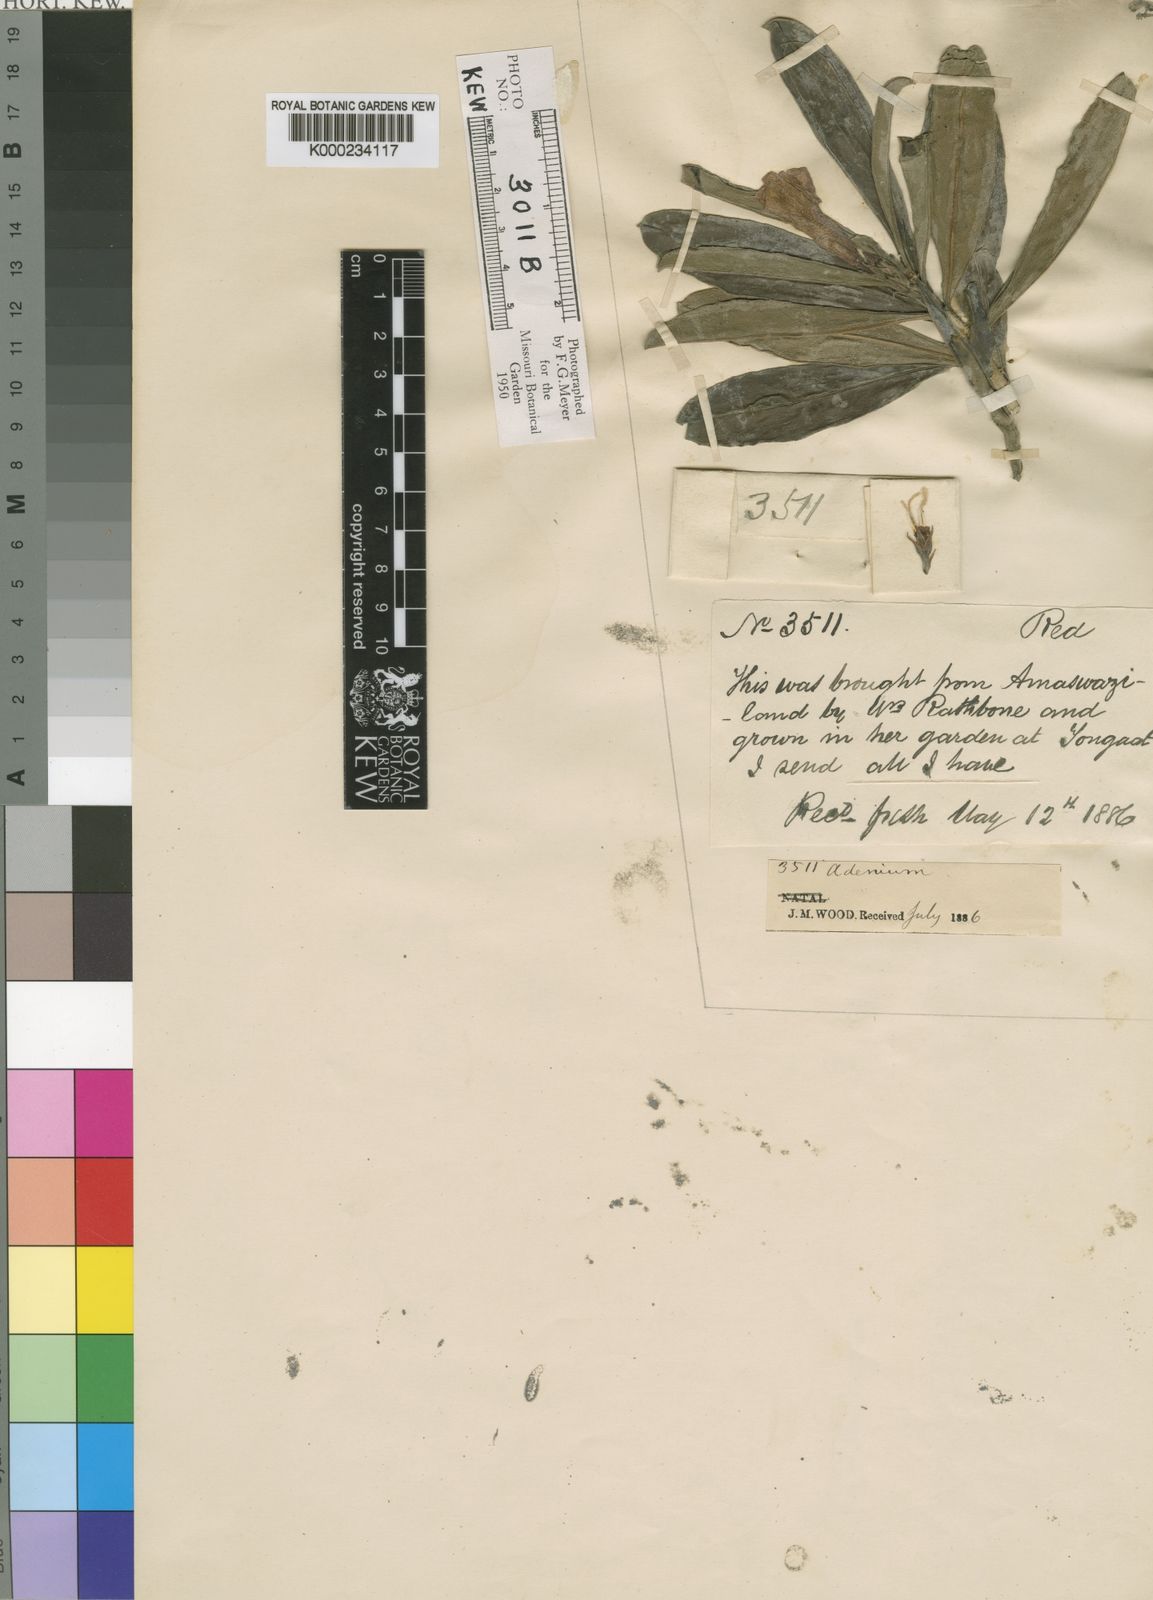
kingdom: Plantae
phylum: Tracheophyta
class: Magnoliopsida
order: Gentianales
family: Apocynaceae
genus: Adenium
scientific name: Adenium obesum
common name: Desert-rose
